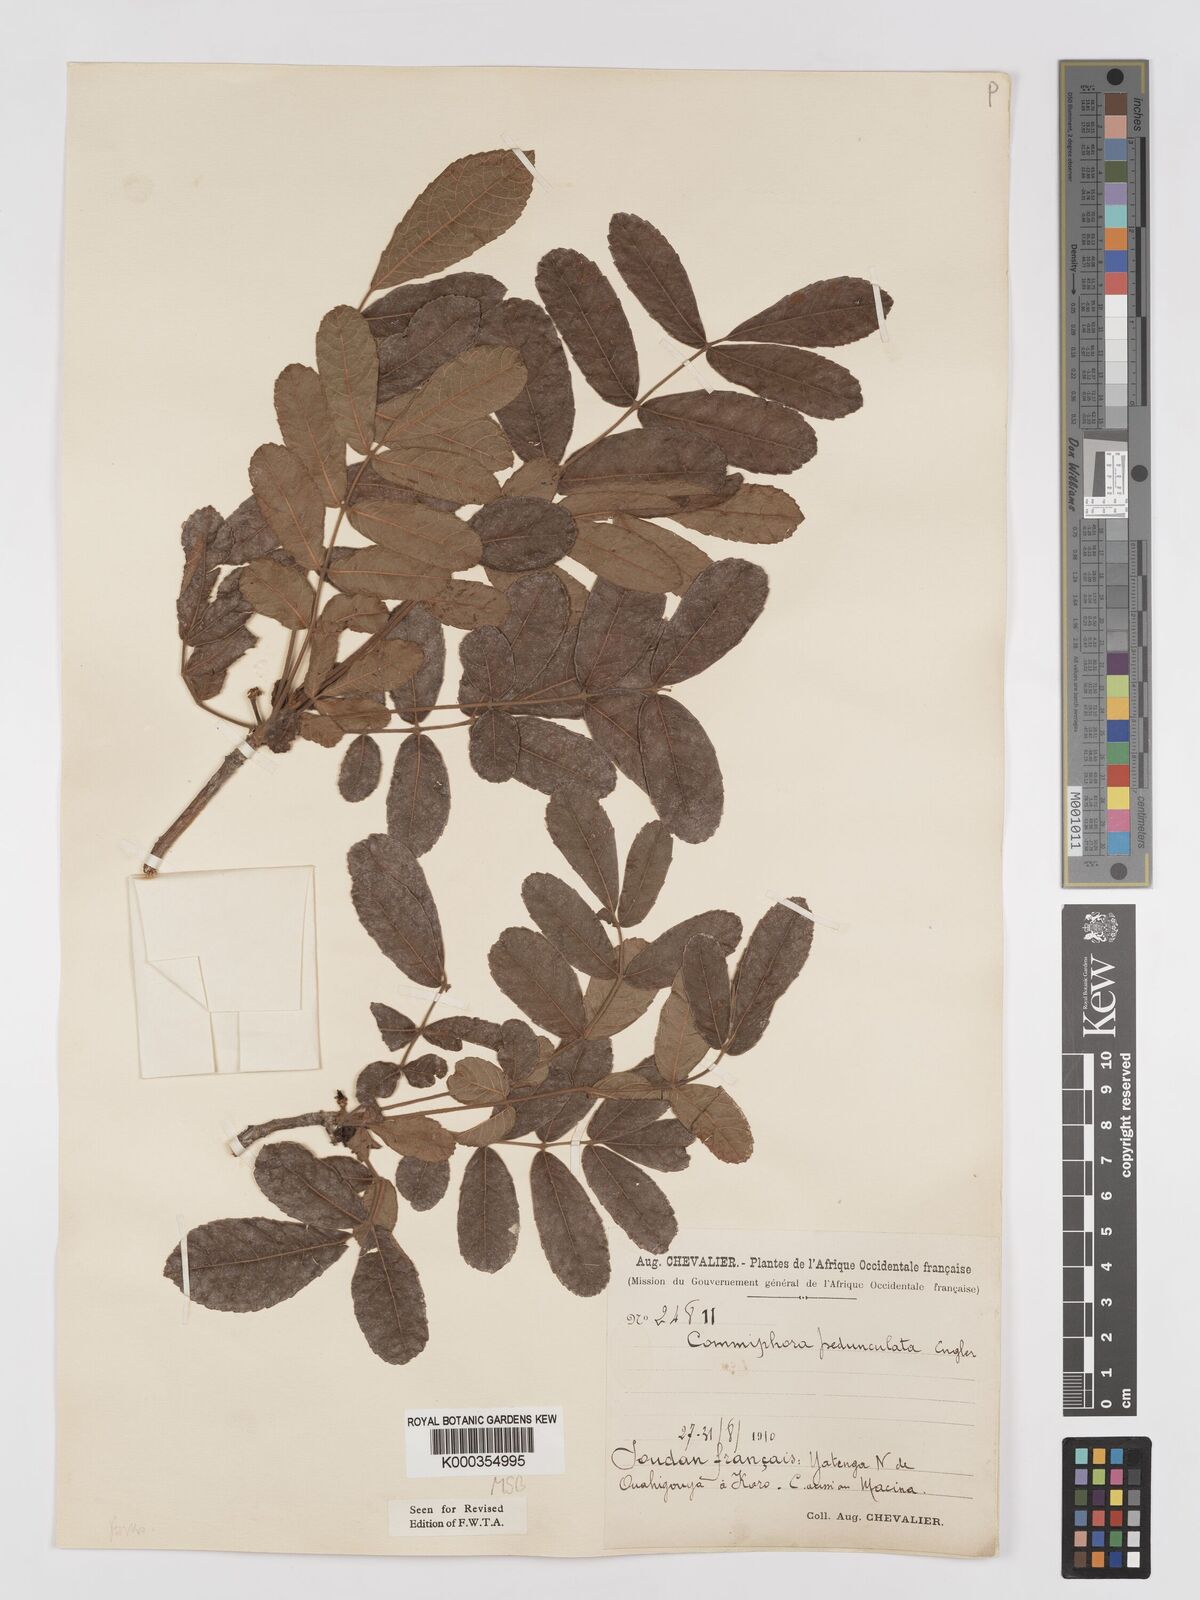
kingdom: Plantae
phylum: Tracheophyta
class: Magnoliopsida
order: Sapindales
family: Burseraceae
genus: Commiphora
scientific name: Commiphora pedunculata
